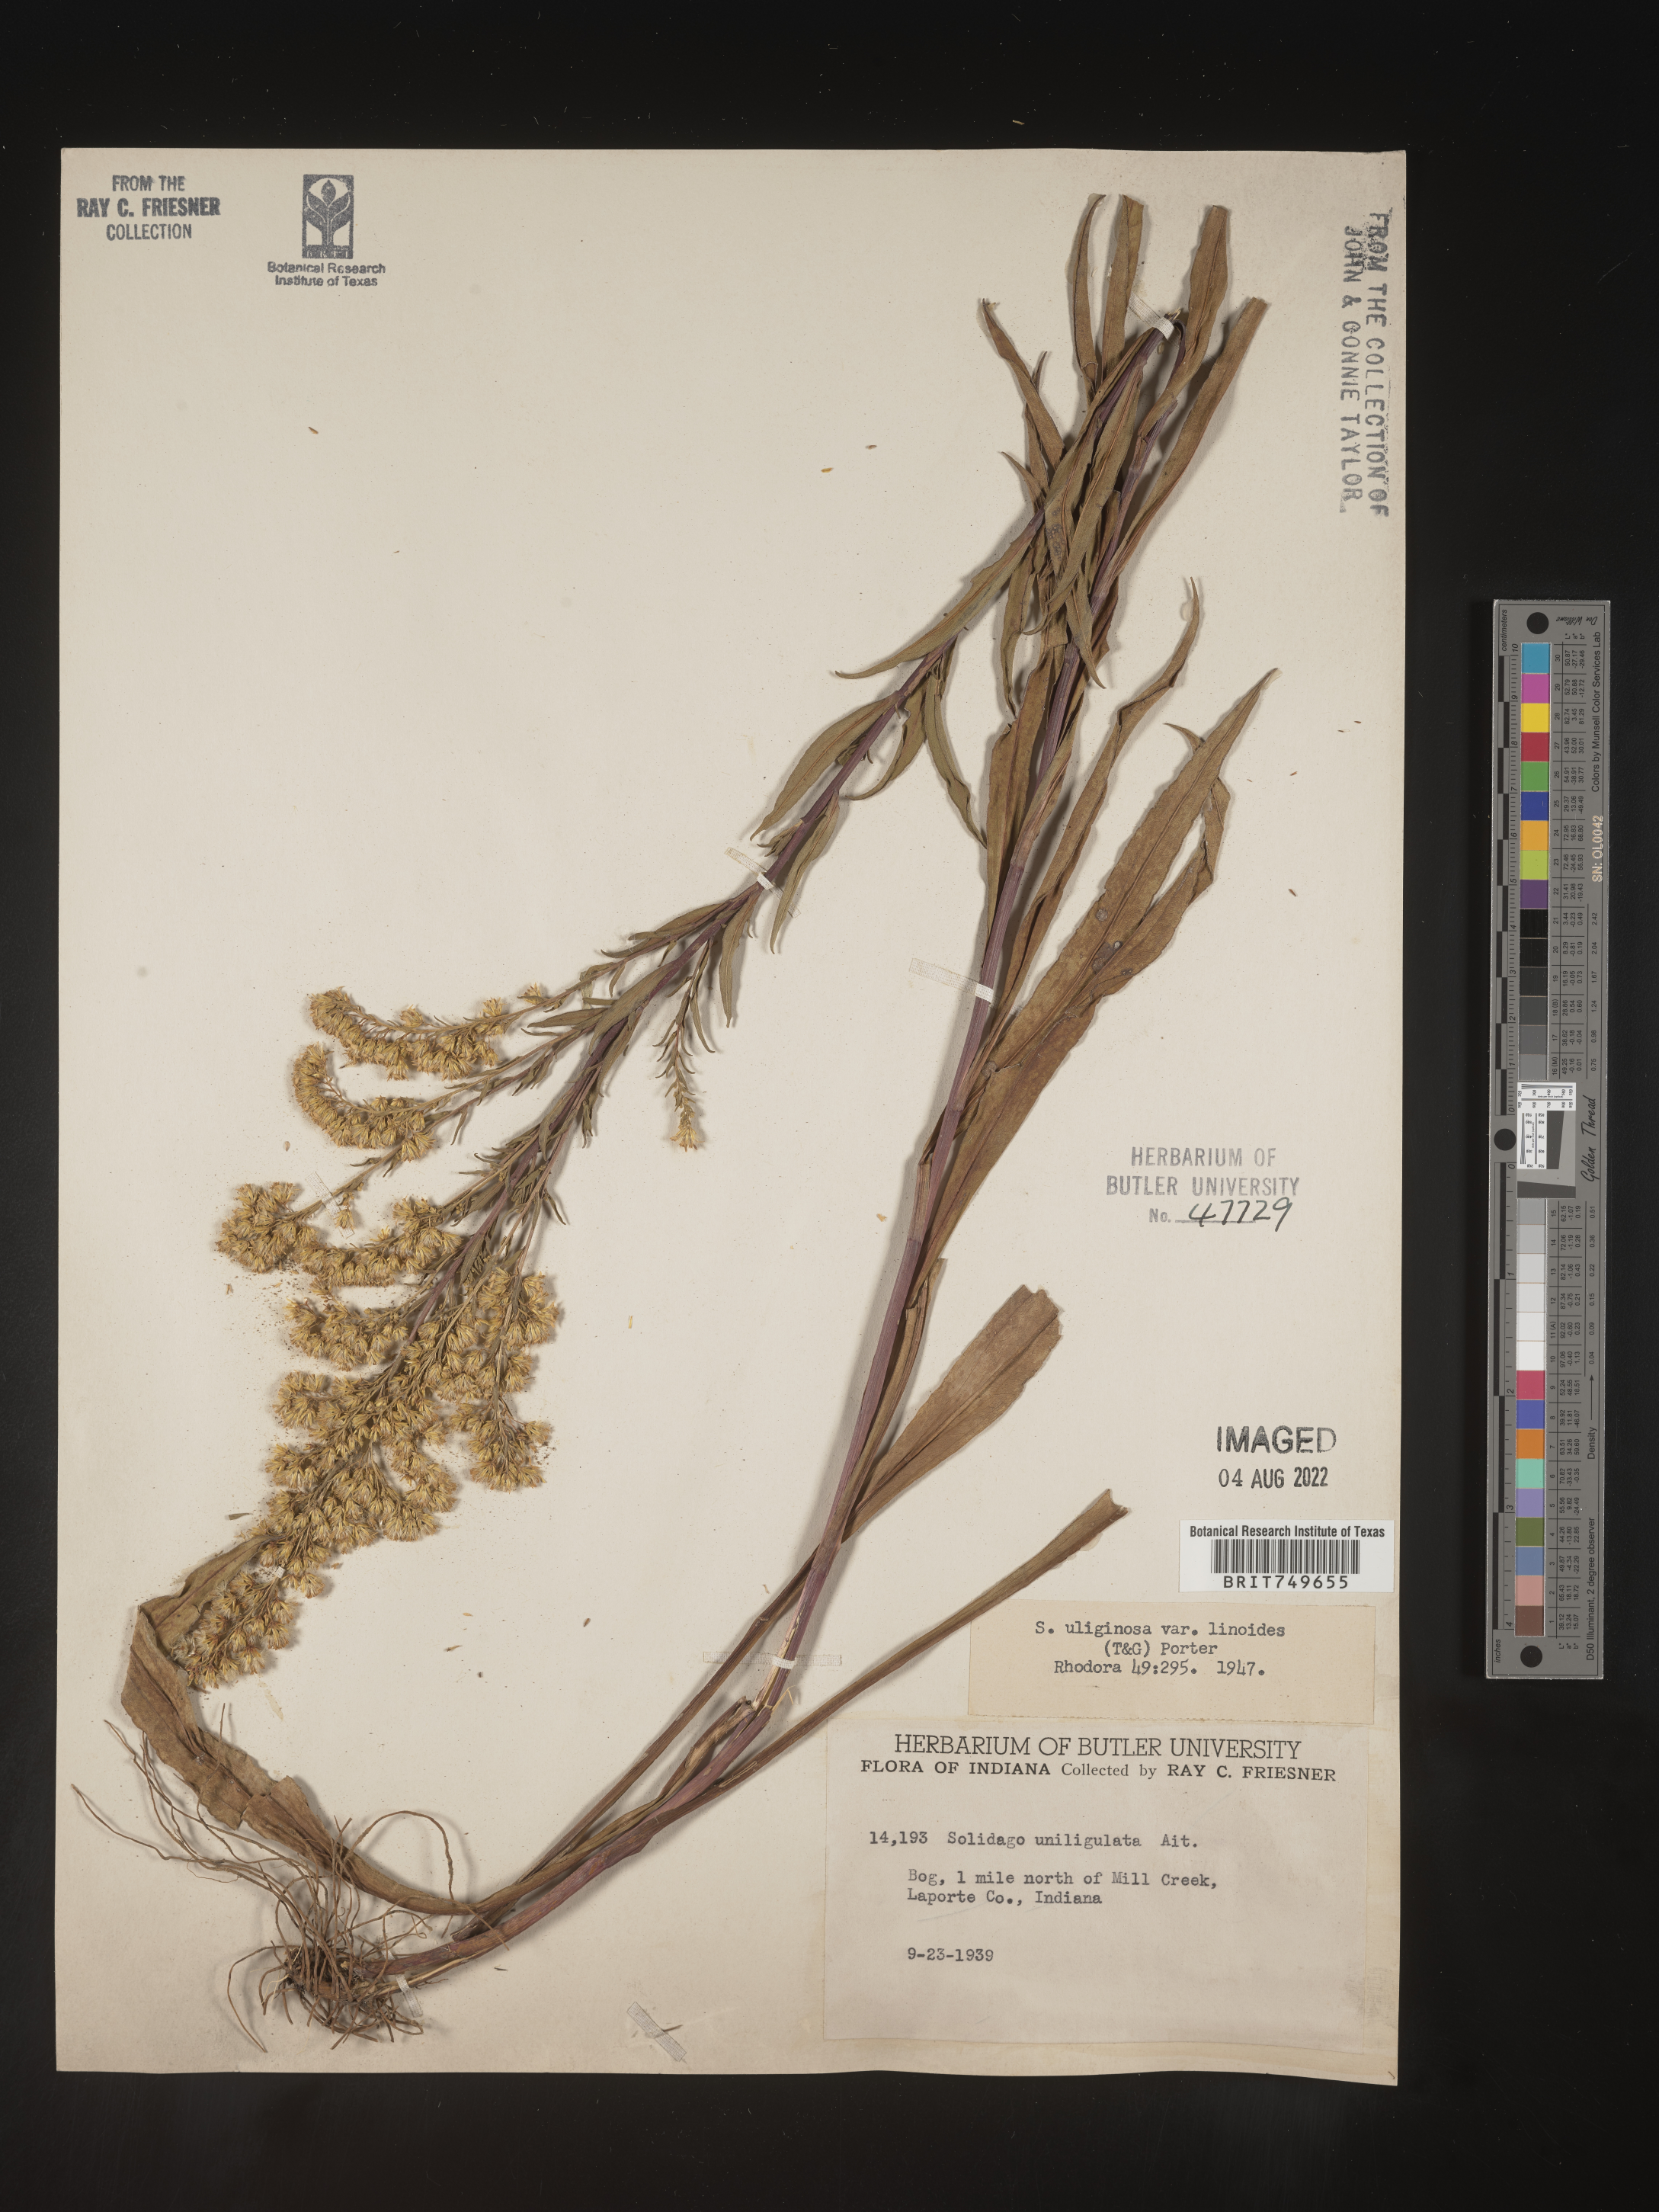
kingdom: Plantae
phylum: Tracheophyta
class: Magnoliopsida
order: Asterales
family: Asteraceae
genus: Solidago
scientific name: Solidago uliginosa
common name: Bog goldenrod
